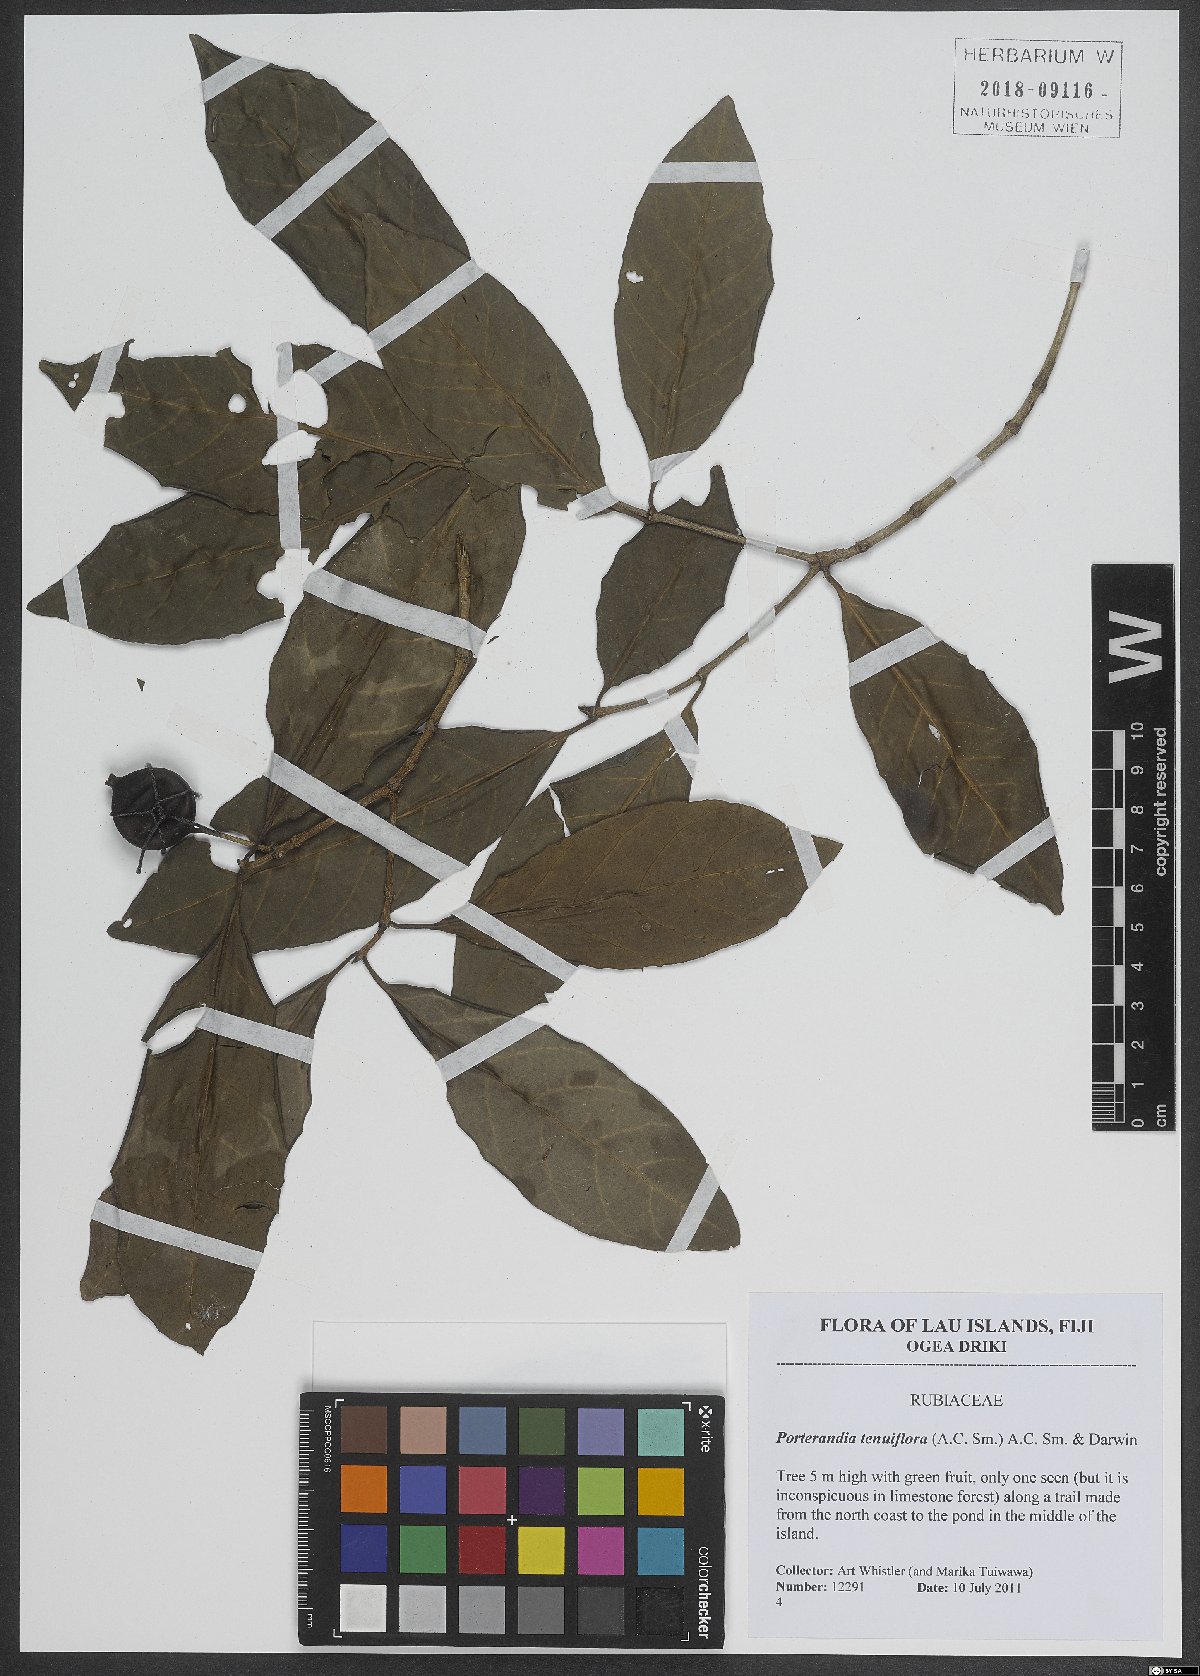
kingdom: Plantae
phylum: Tracheophyta
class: Magnoliopsida
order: Gentianales
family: Rubiaceae
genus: Atractocarpus
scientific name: Atractocarpus tenuiflorus
